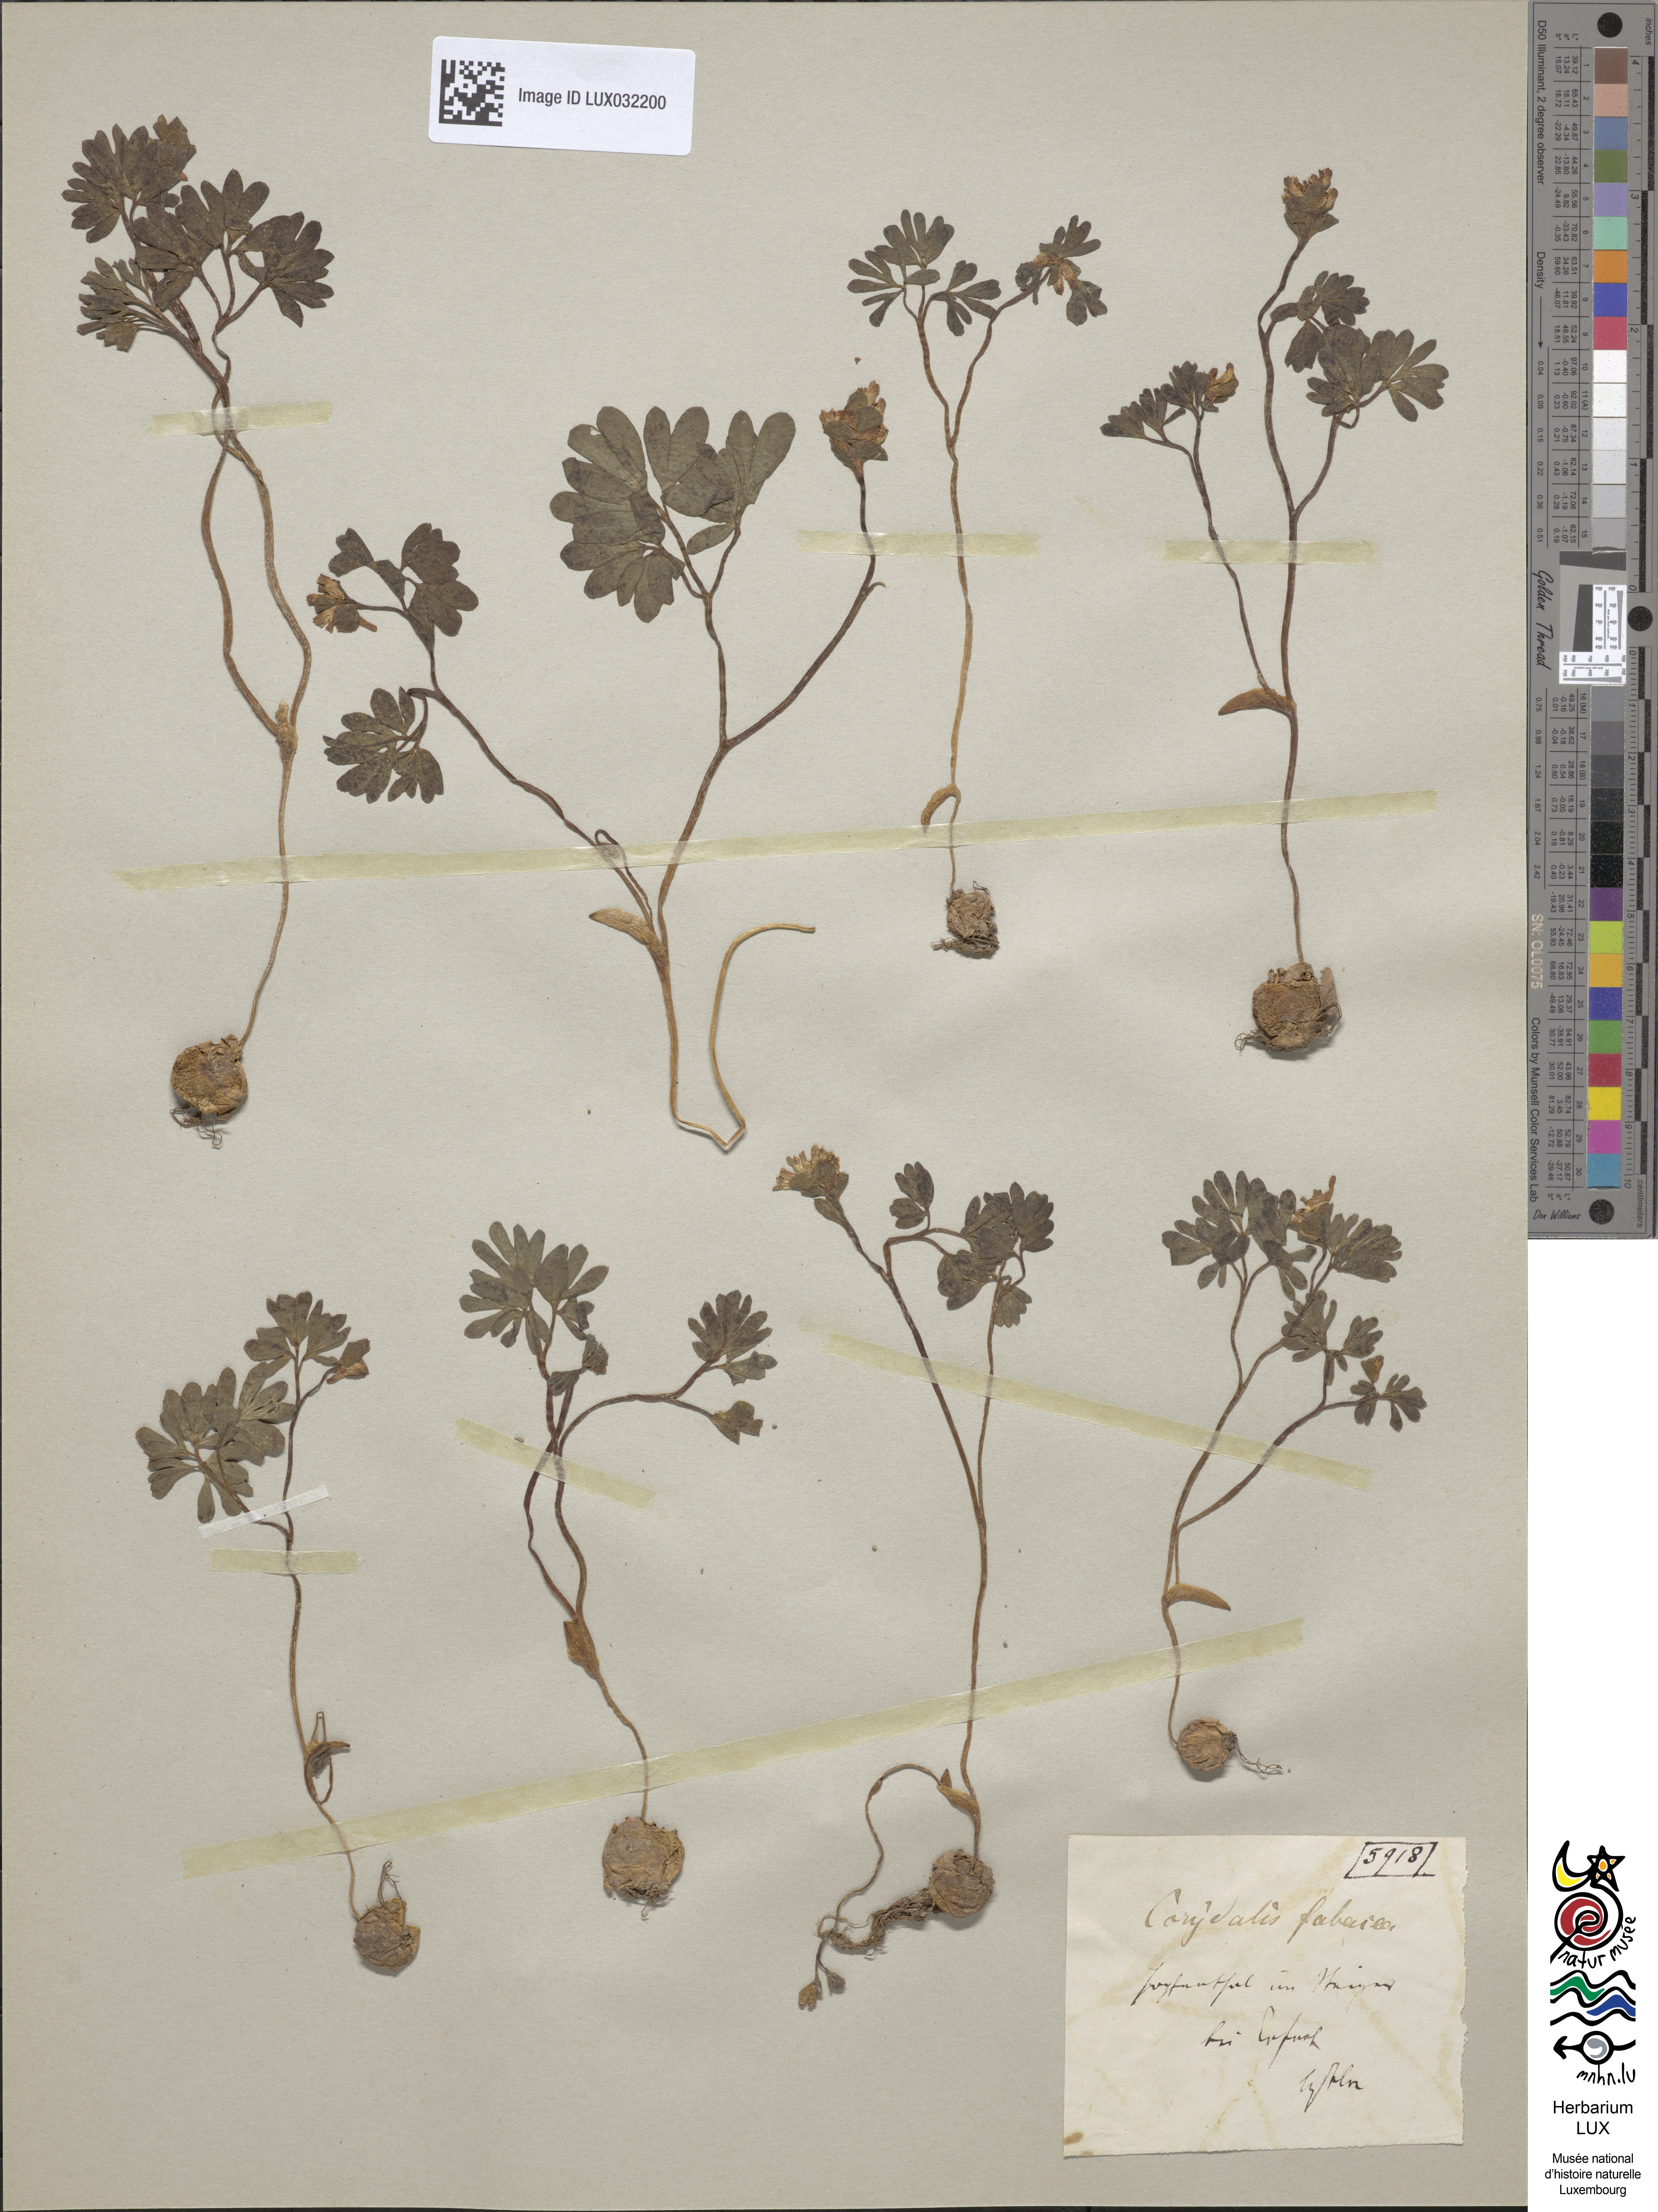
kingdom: Plantae
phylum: Tracheophyta
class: Magnoliopsida
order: Ranunculales
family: Papaveraceae
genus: Corydalis
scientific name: Corydalis intermedia
